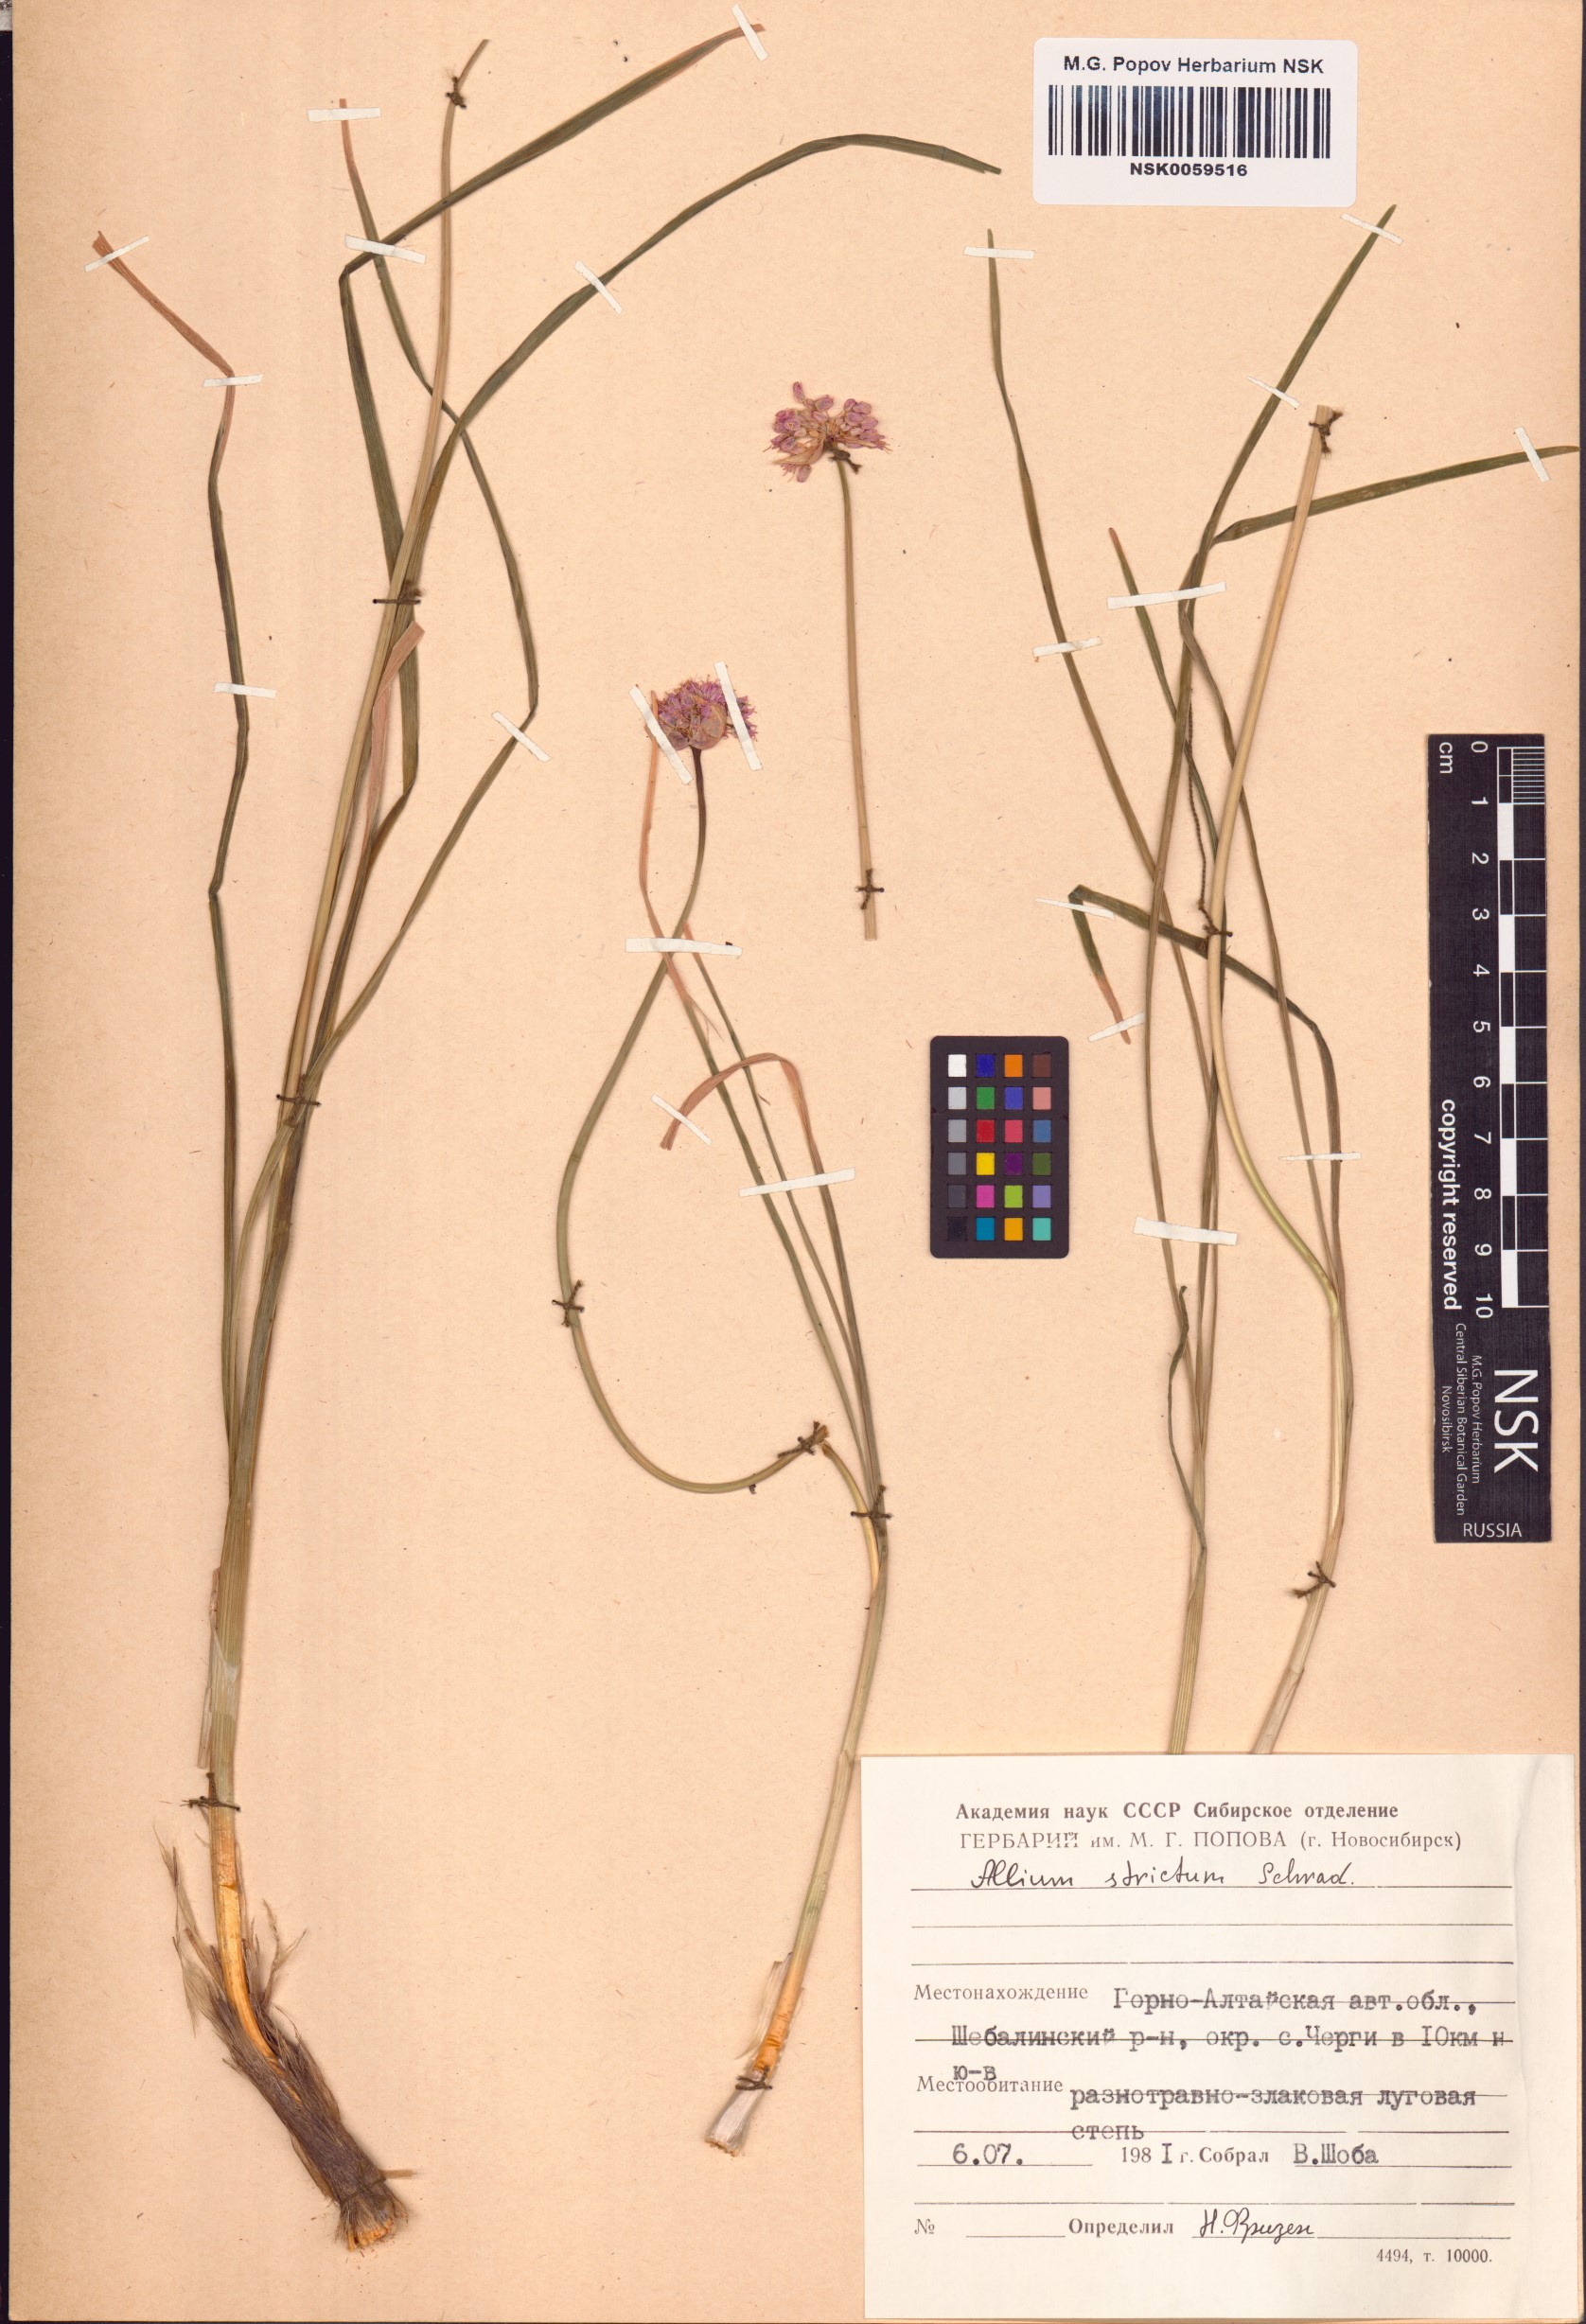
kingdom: Plantae
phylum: Tracheophyta
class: Liliopsida
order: Asparagales
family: Amaryllidaceae
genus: Allium
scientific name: Allium strictum
